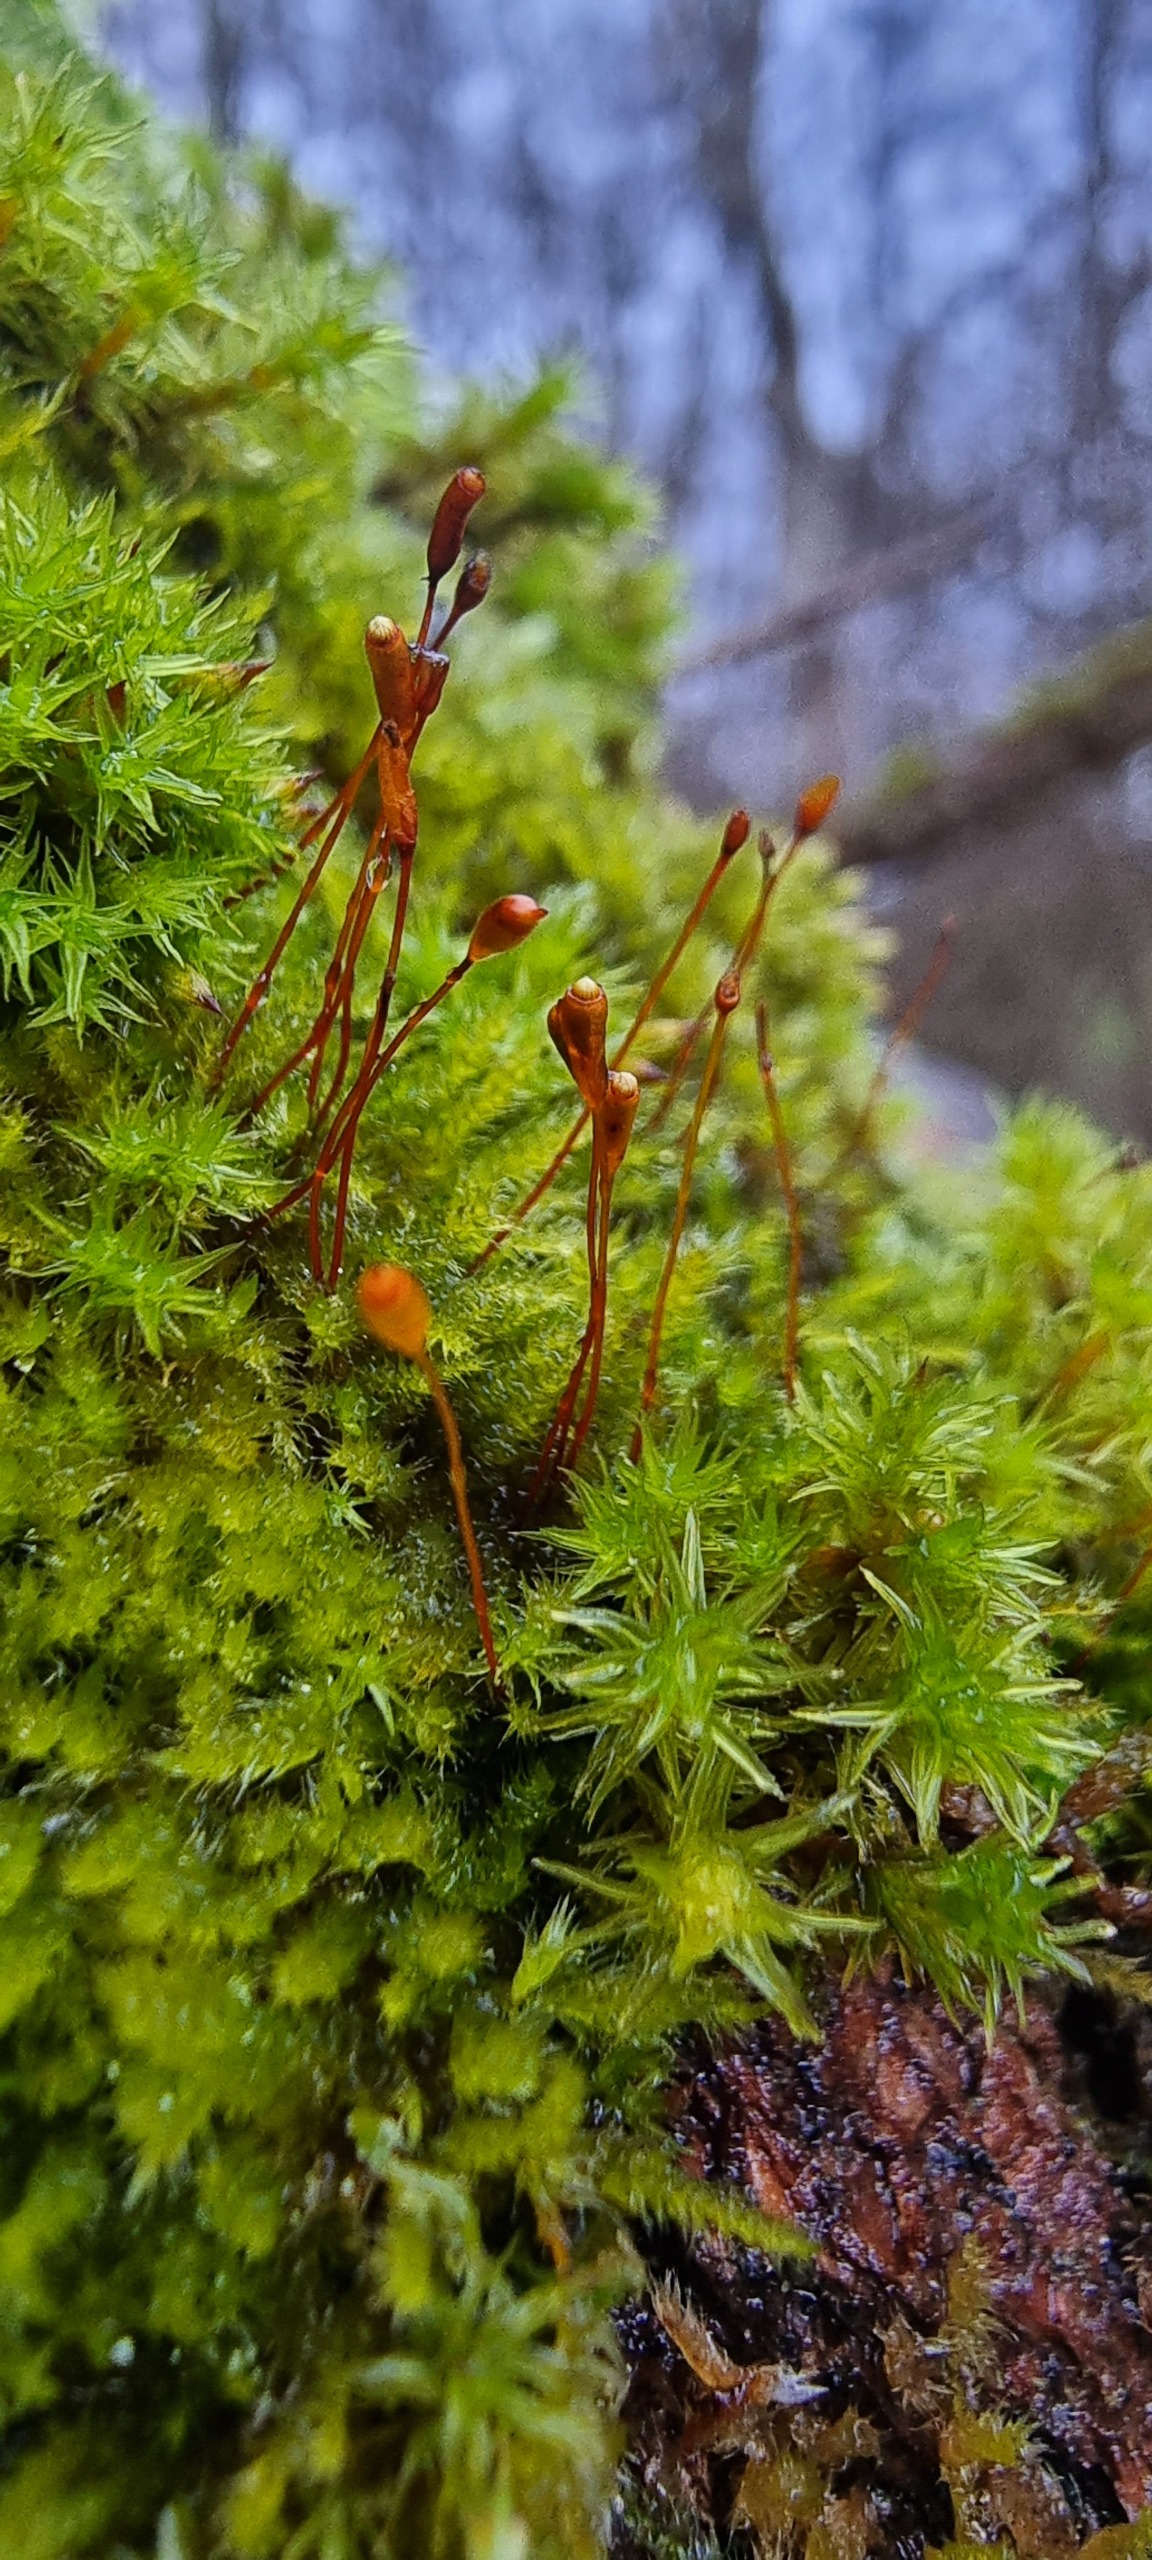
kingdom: Plantae
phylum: Bryophyta
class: Bryopsida
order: Hypnales
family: Hypnaceae
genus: Hypnum
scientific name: Hypnum resupinatum
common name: Ret cypresmos
